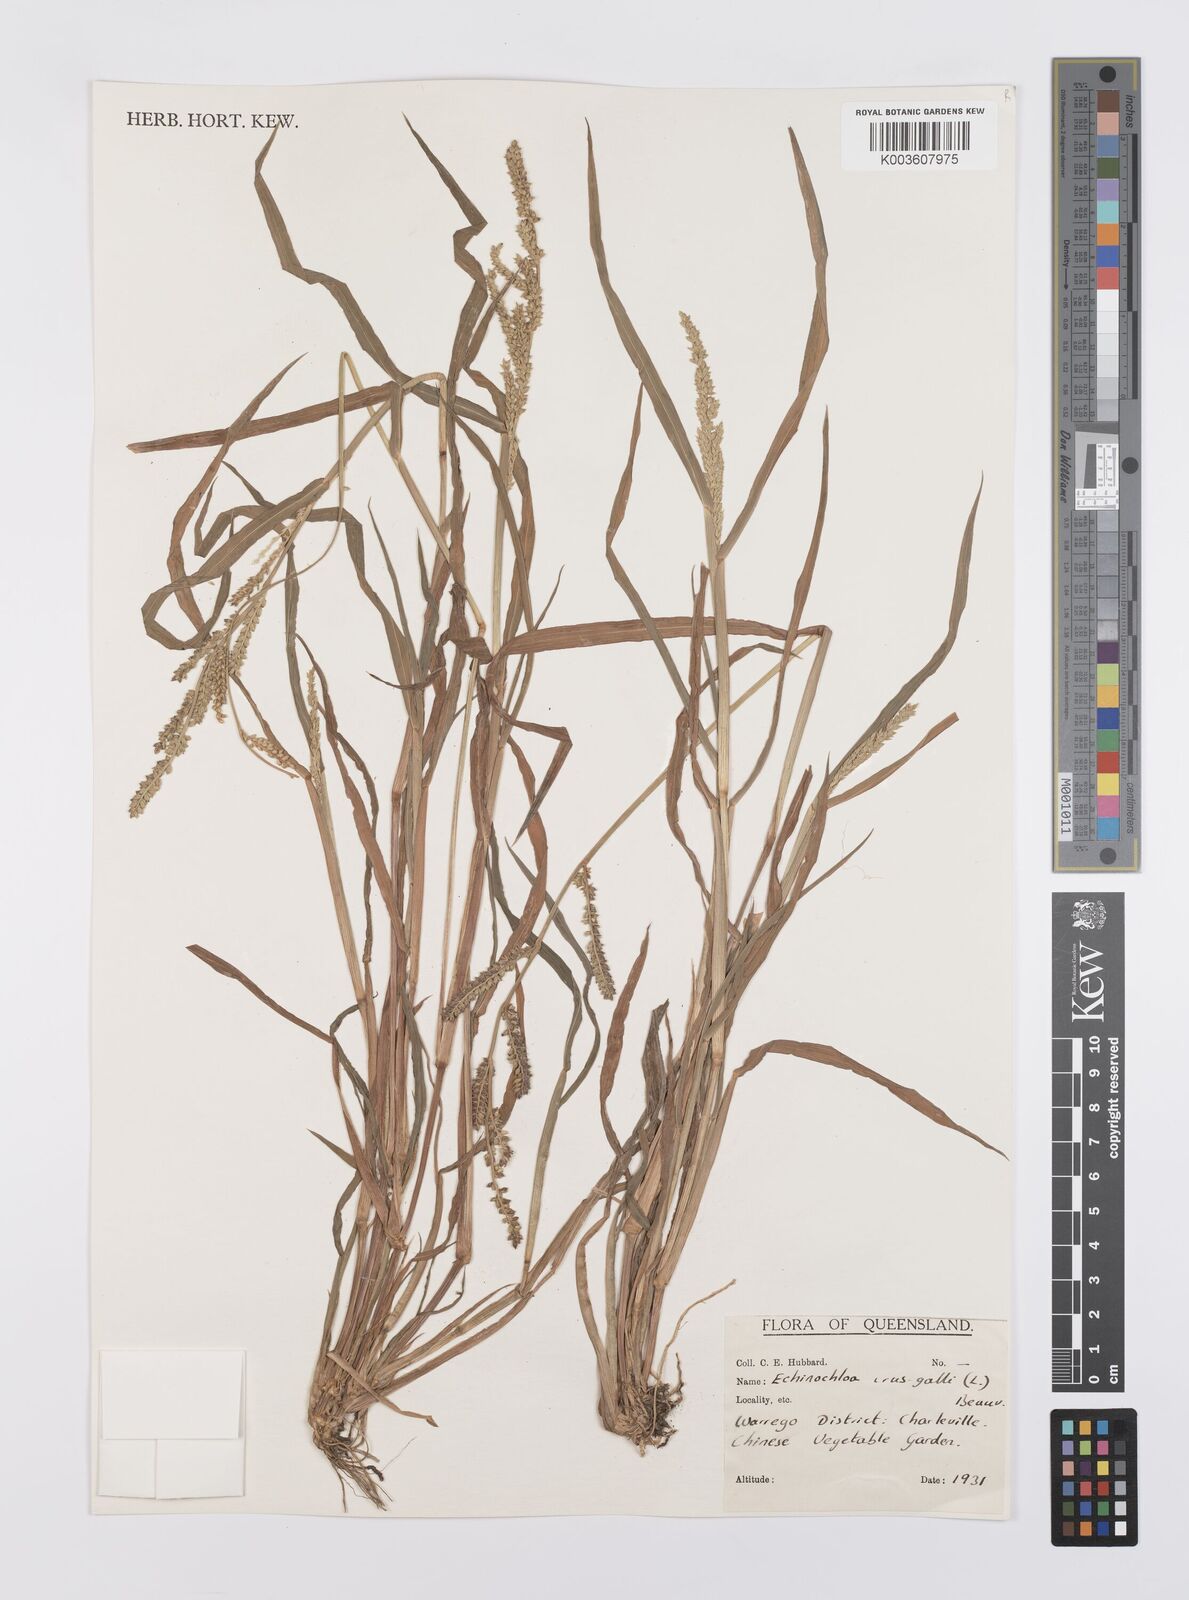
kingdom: Plantae
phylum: Tracheophyta
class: Liliopsida
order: Poales
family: Poaceae
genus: Echinochloa
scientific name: Echinochloa crus-galli
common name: Cockspur
